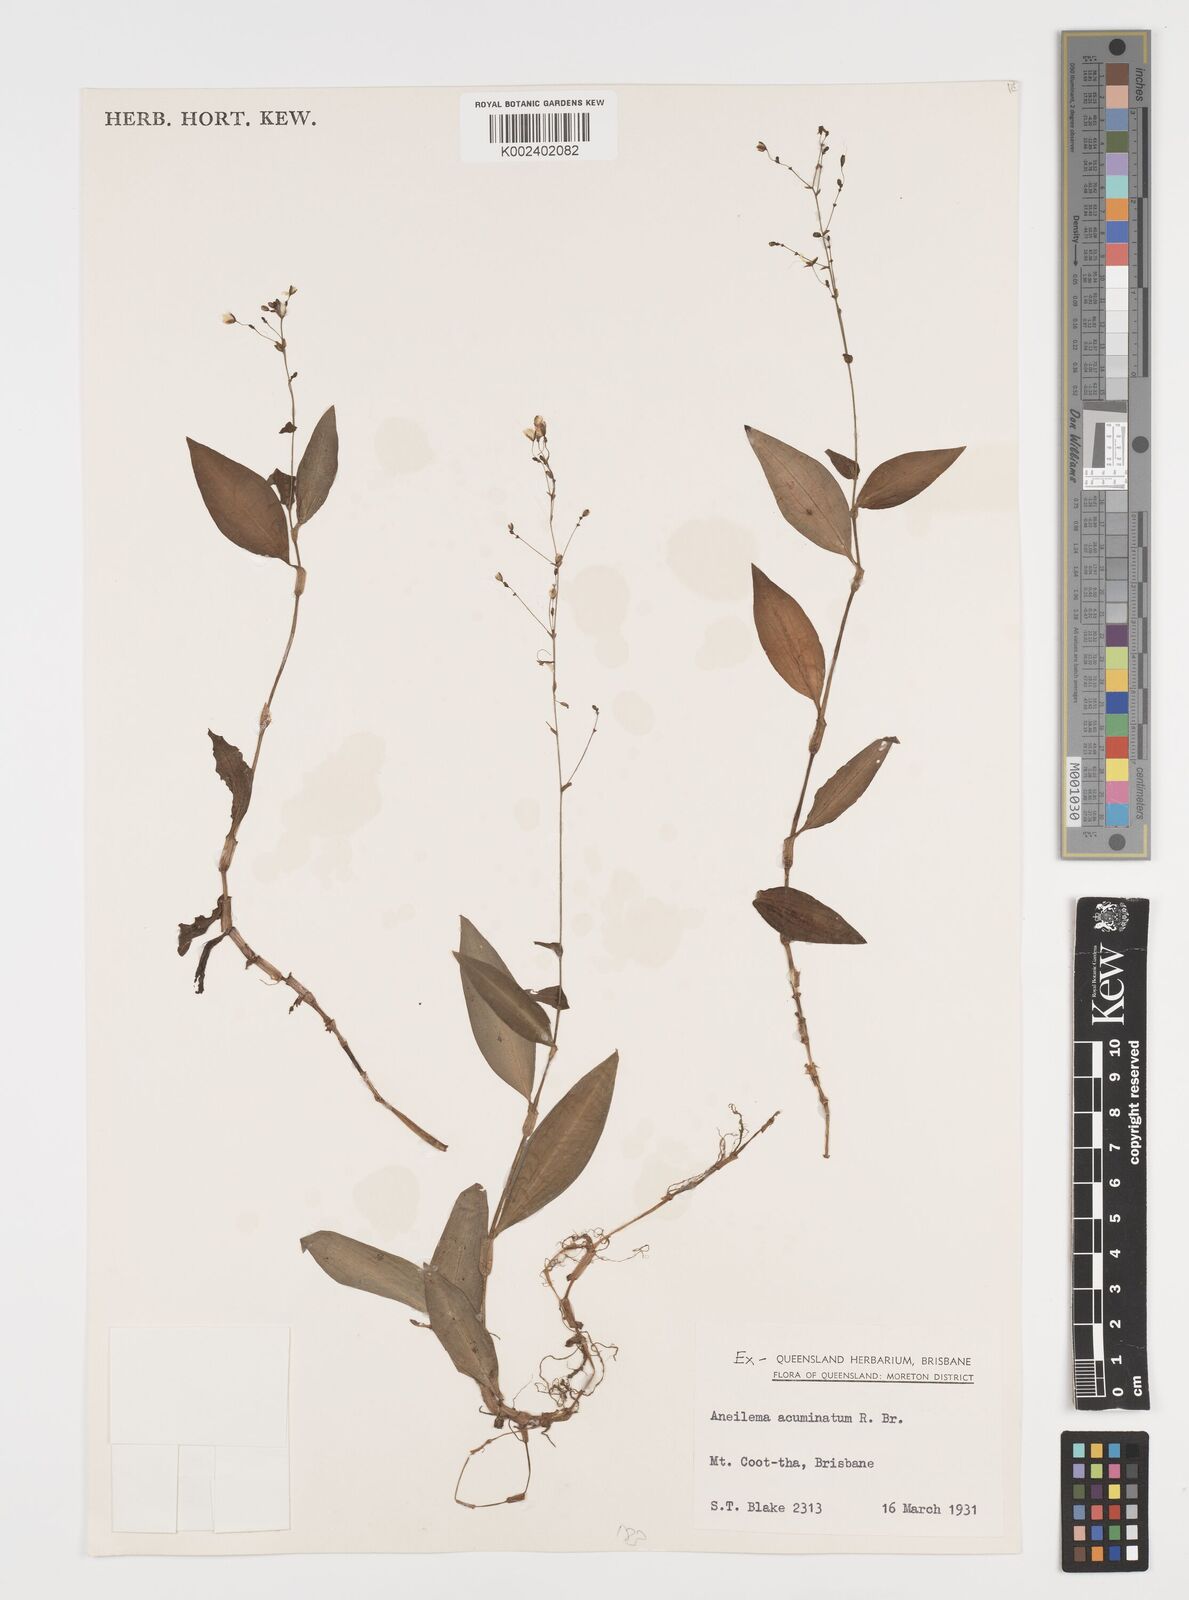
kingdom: Plantae
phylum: Tracheophyta
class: Liliopsida
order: Commelinales
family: Commelinaceae
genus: Aneilema
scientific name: Aneilema acuminatum
